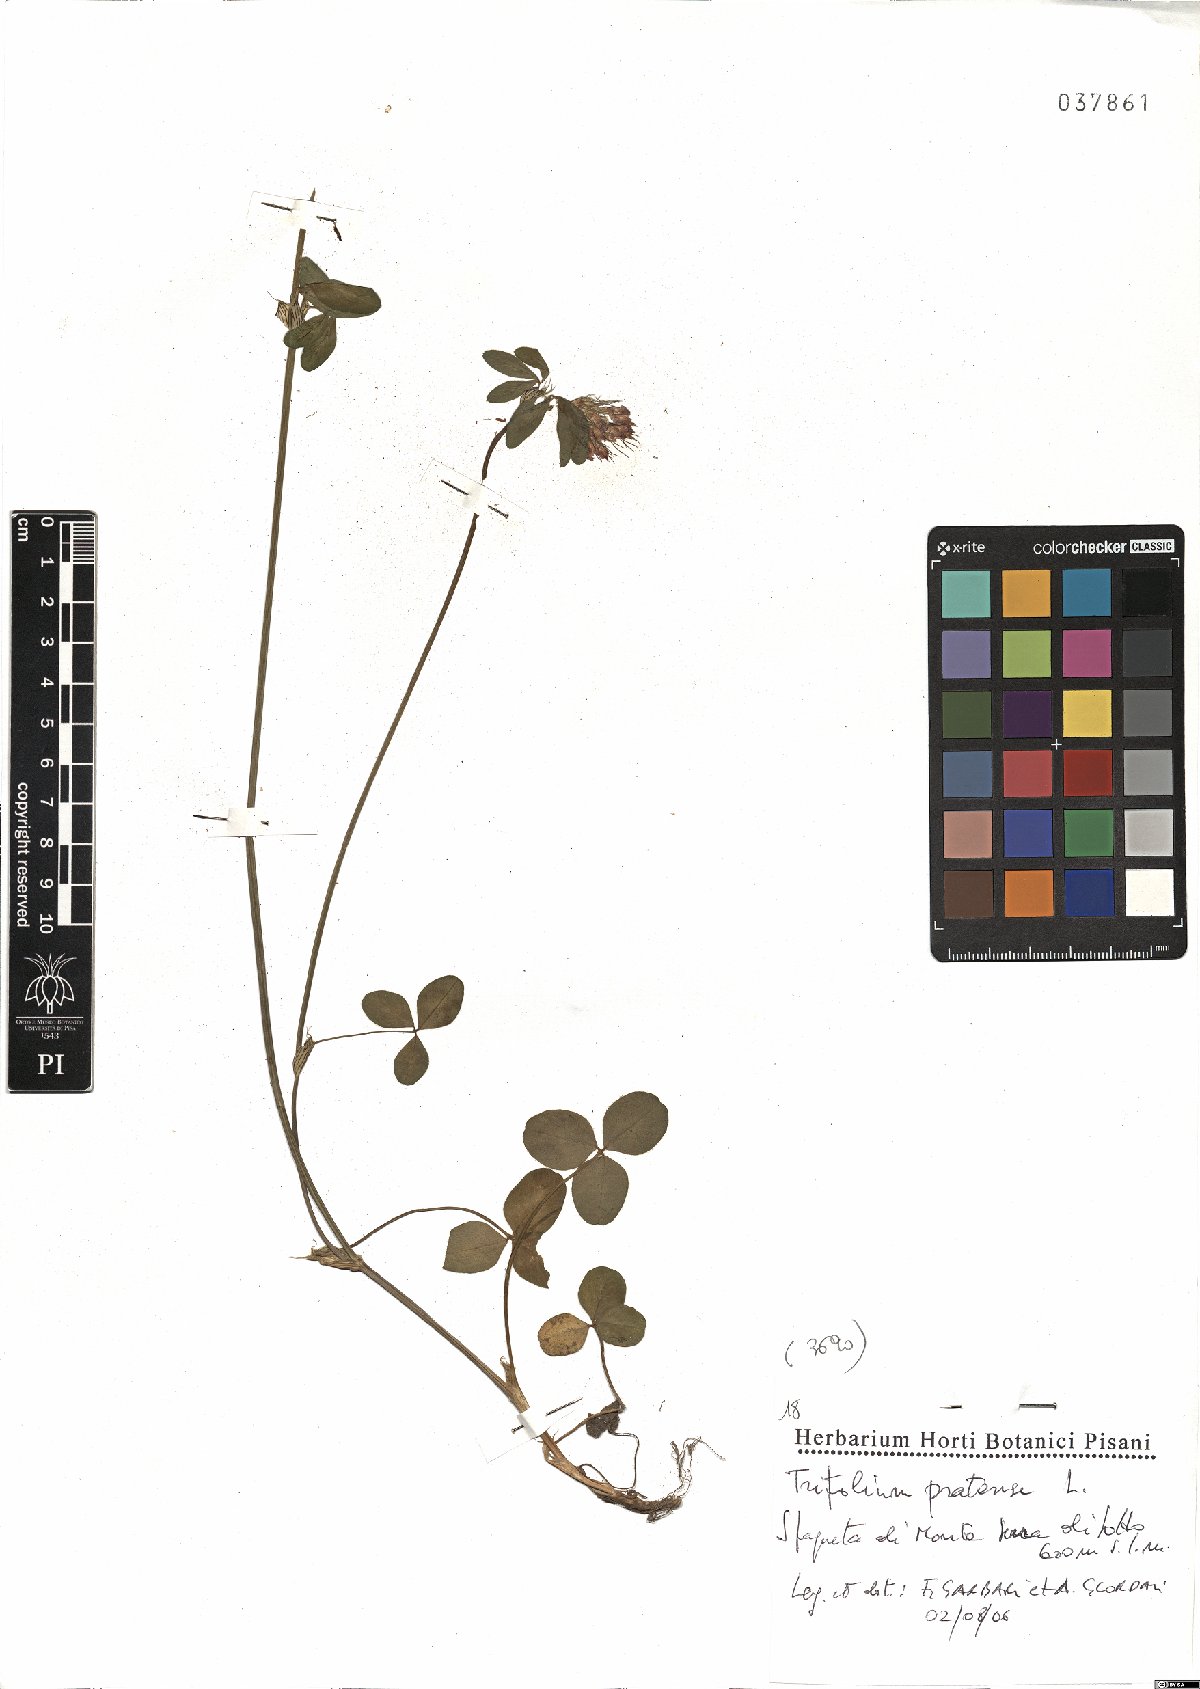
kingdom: Plantae
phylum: Tracheophyta
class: Magnoliopsida
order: Fabales
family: Fabaceae
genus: Trifolium
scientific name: Trifolium pratense
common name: Red clover
